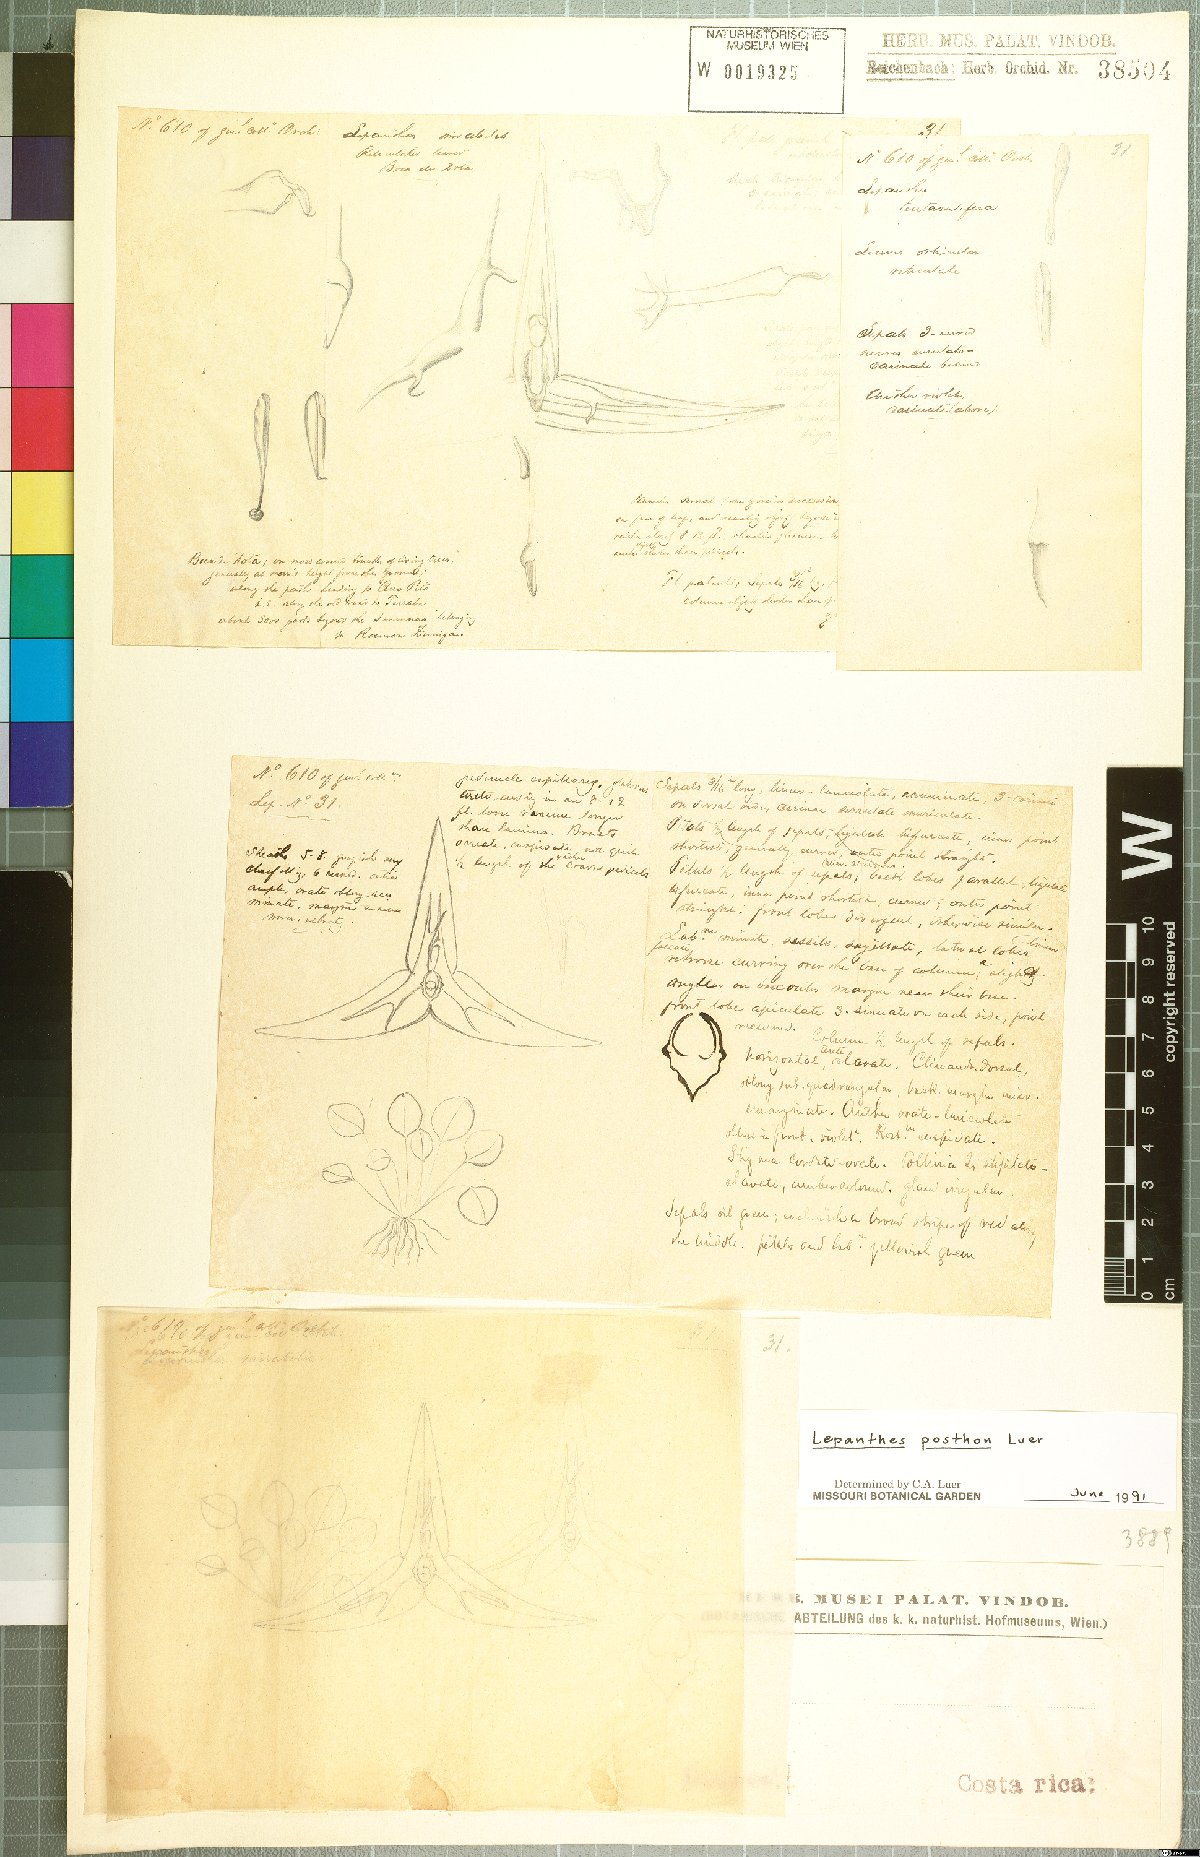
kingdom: Plantae
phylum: Tracheophyta
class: Liliopsida
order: Asparagales
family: Orchidaceae
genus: Lepanthes
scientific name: Lepanthes posthon
